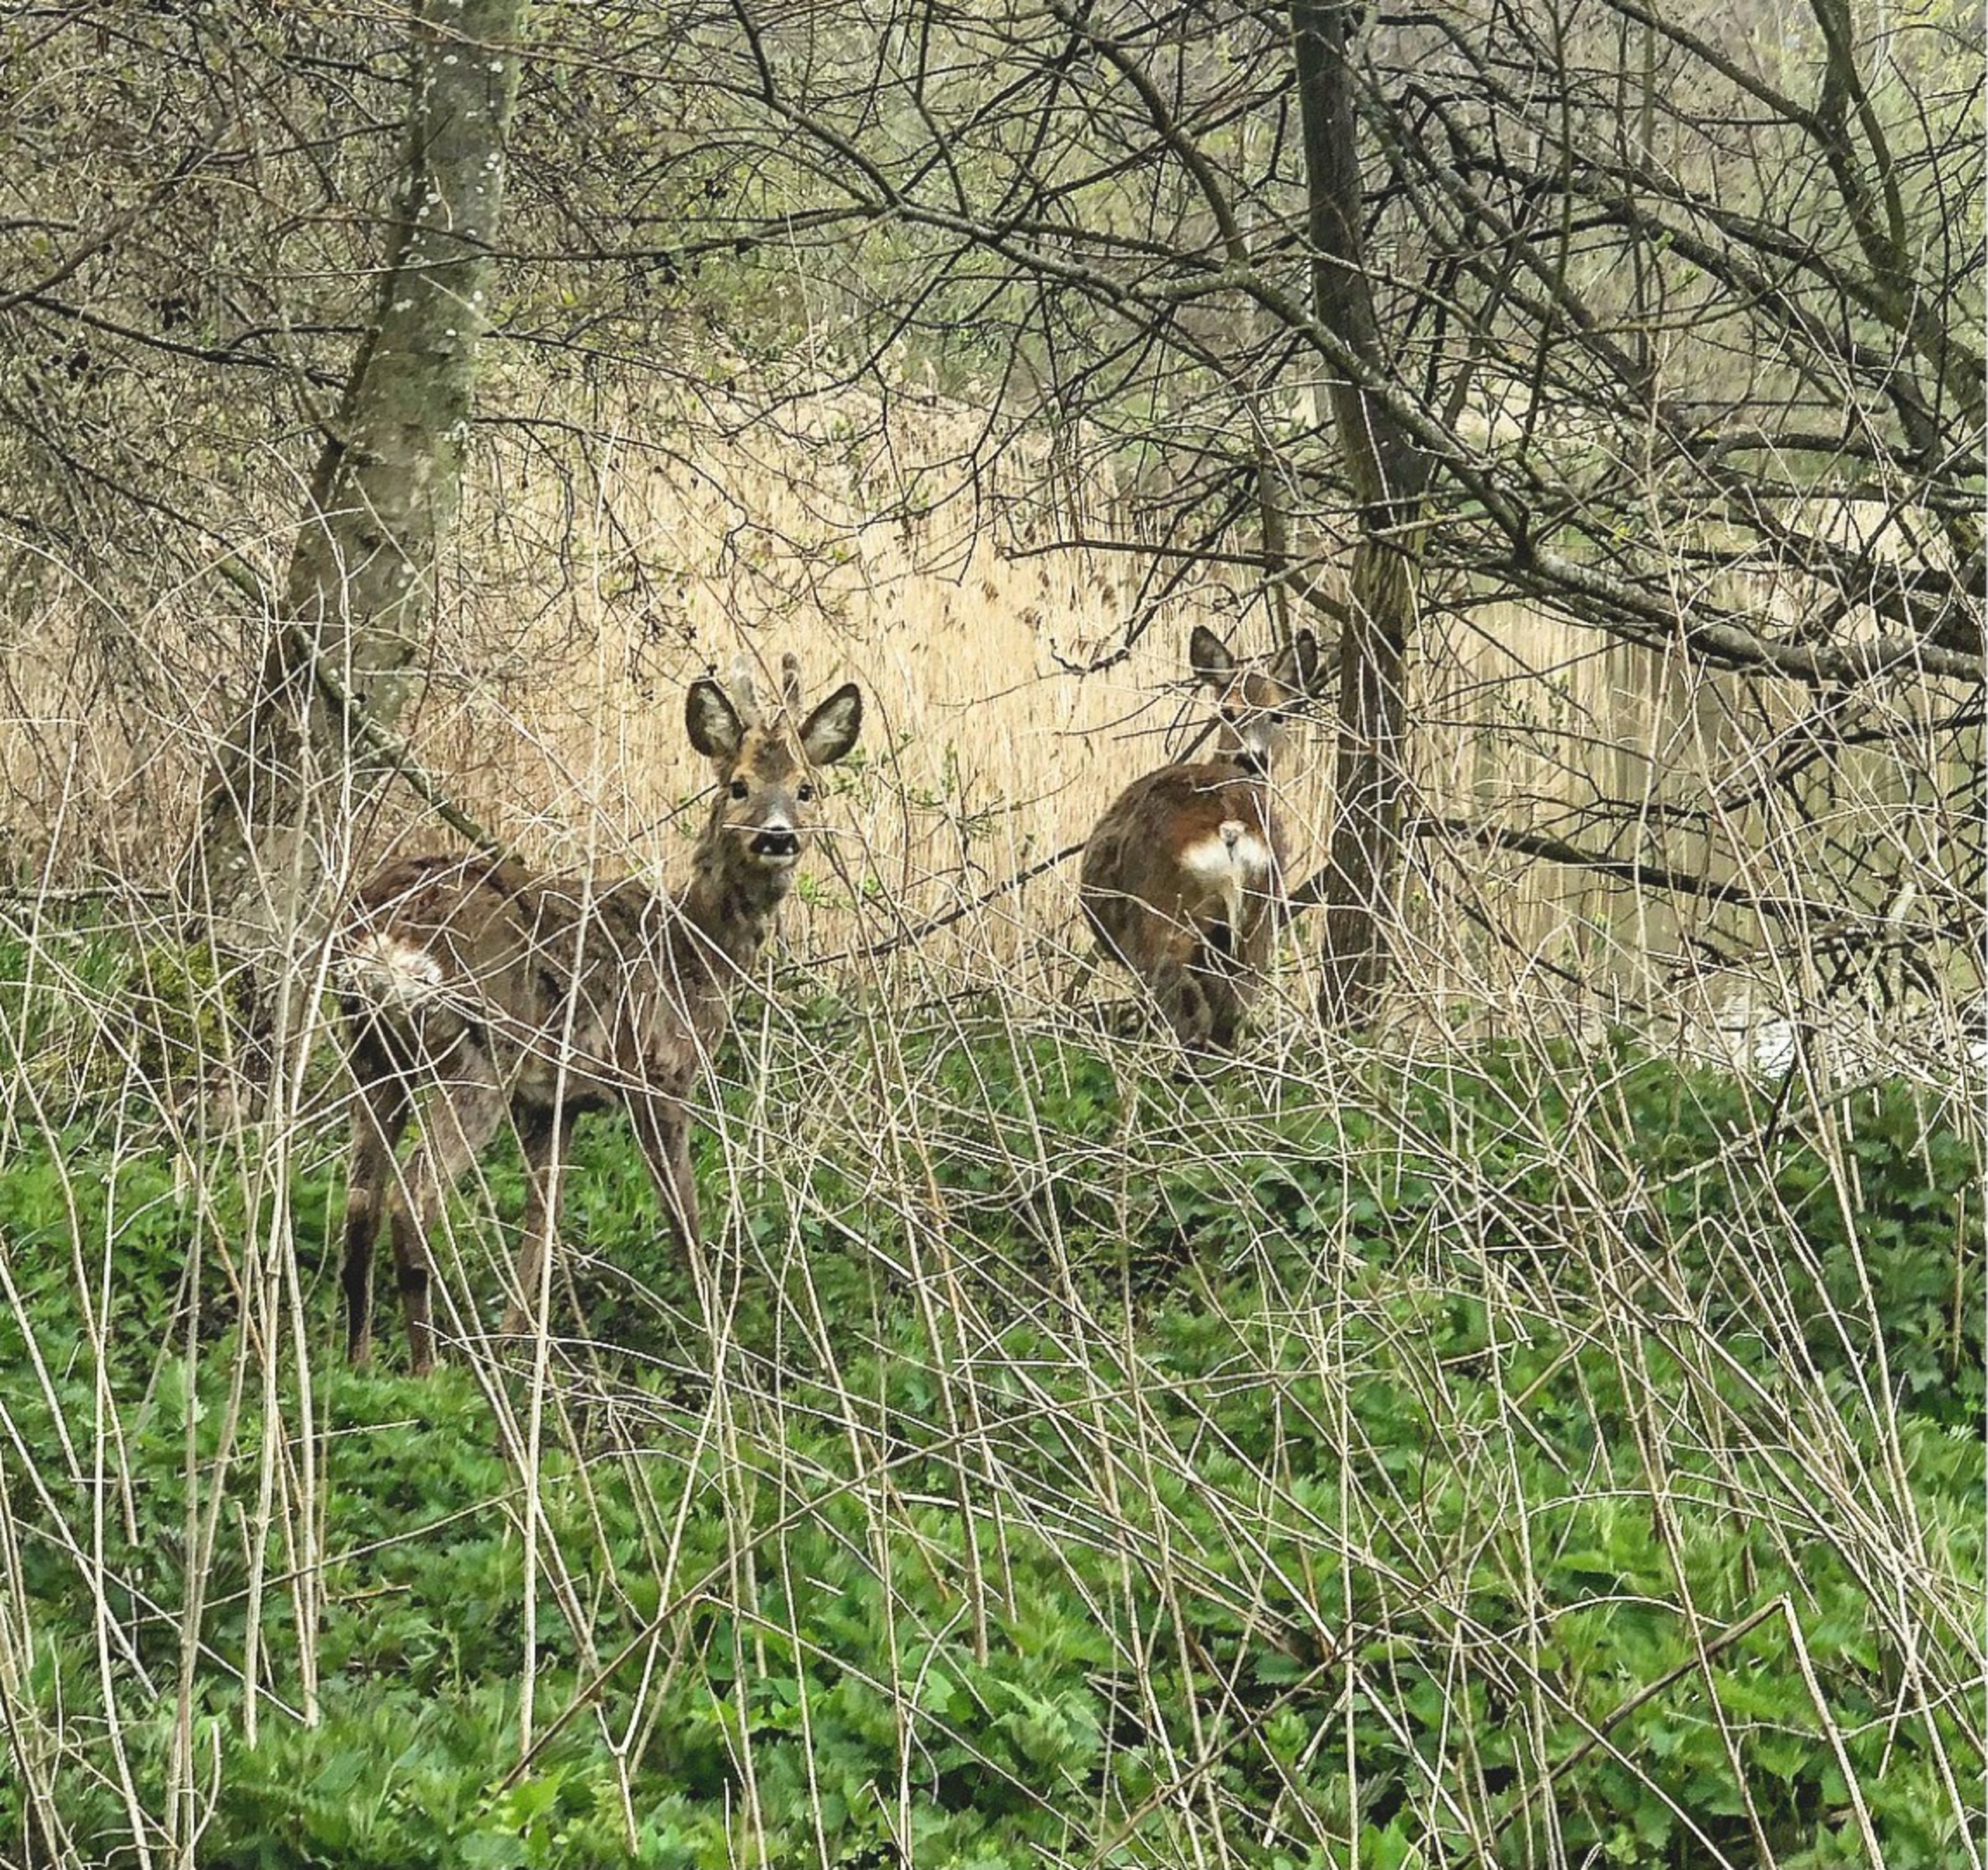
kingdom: Animalia
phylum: Chordata
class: Mammalia
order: Artiodactyla
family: Cervidae
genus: Capreolus
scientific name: Capreolus capreolus
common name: Rådyr
